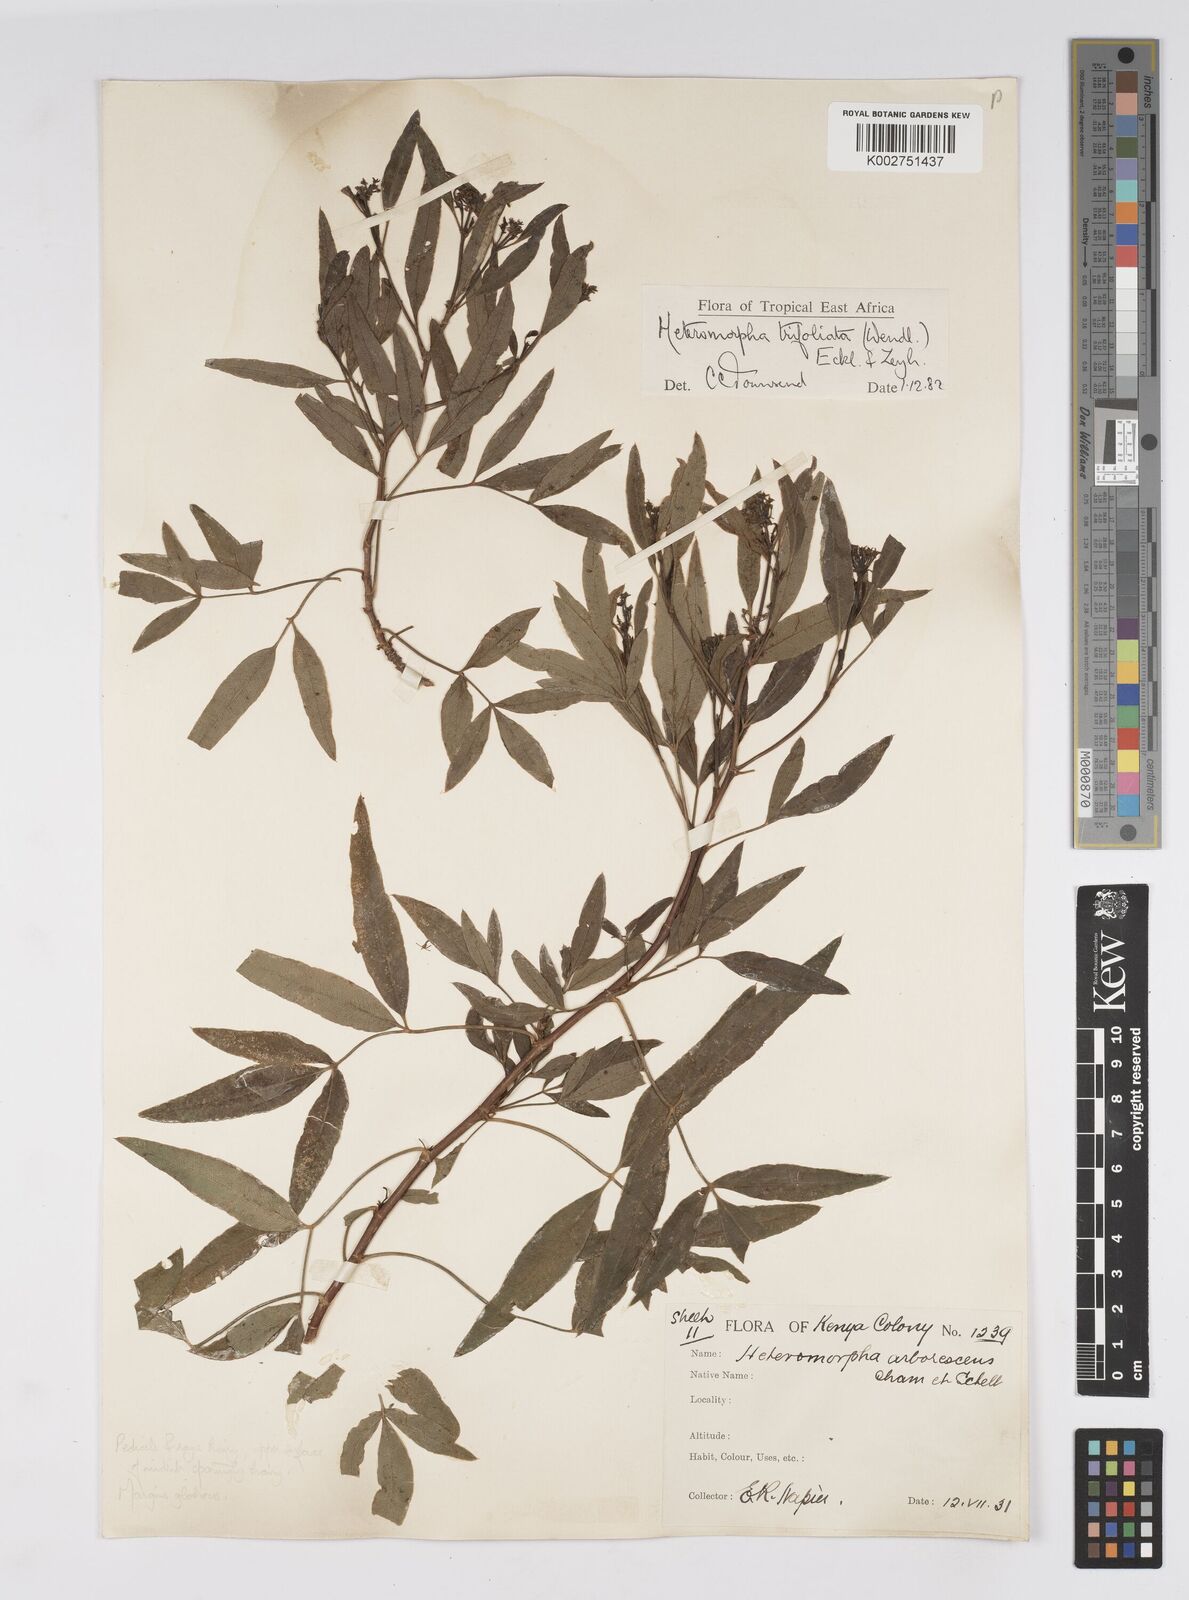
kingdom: Plantae
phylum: Tracheophyta
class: Magnoliopsida
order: Apiales
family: Apiaceae
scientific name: Apiaceae
